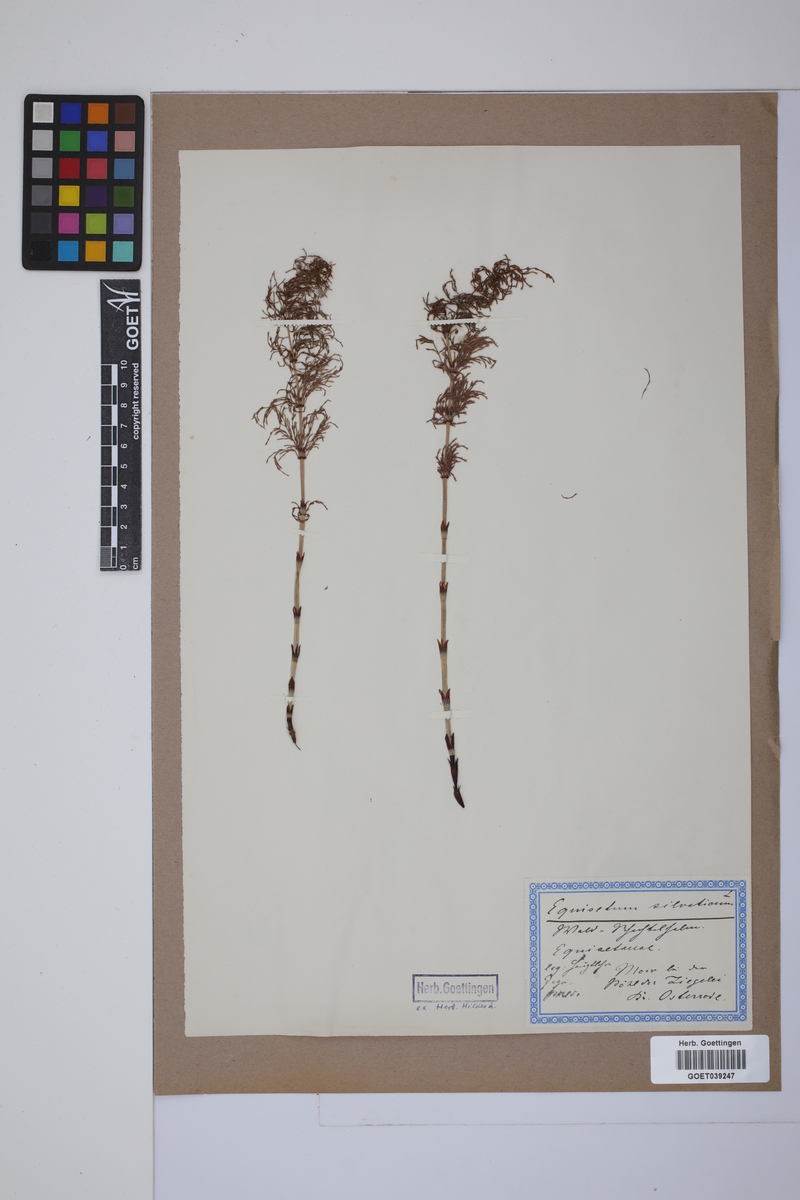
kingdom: Plantae
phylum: Tracheophyta
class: Polypodiopsida
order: Equisetales
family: Equisetaceae
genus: Equisetum
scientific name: Equisetum sylvaticum
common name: Wood horsetail
